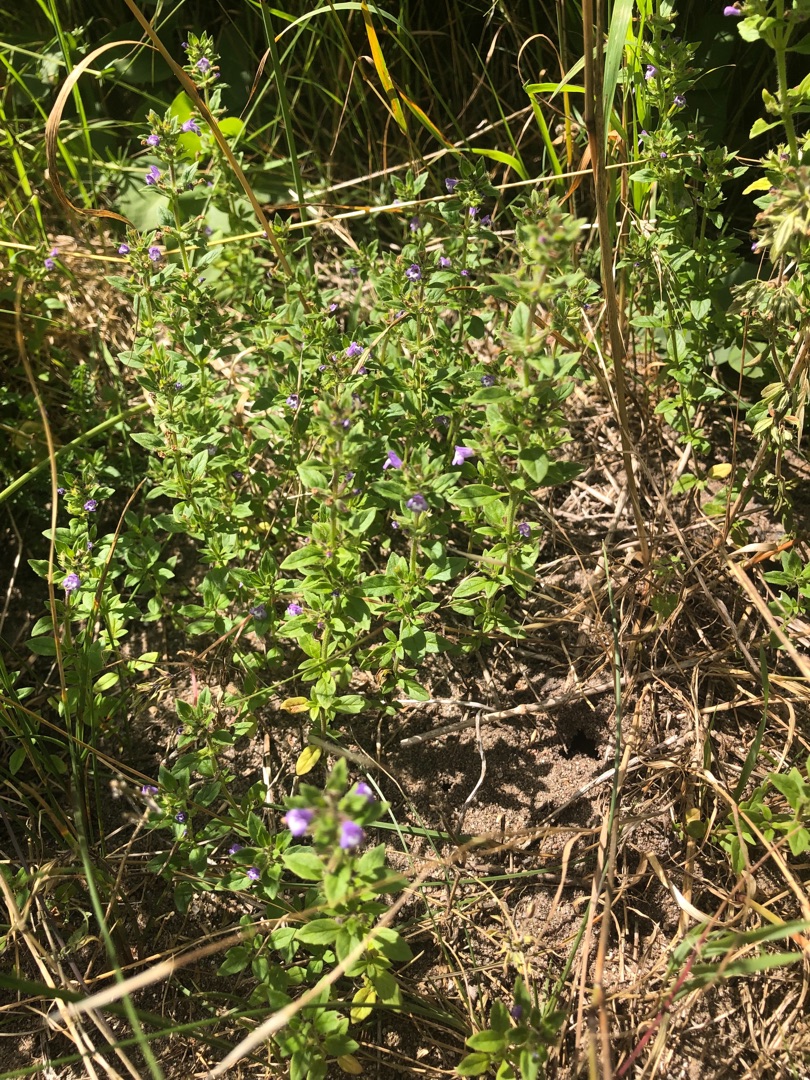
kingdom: Plantae
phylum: Tracheophyta
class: Magnoliopsida
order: Lamiales
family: Lamiaceae
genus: Clinopodium
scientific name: Clinopodium acinos
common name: Voldtimian
